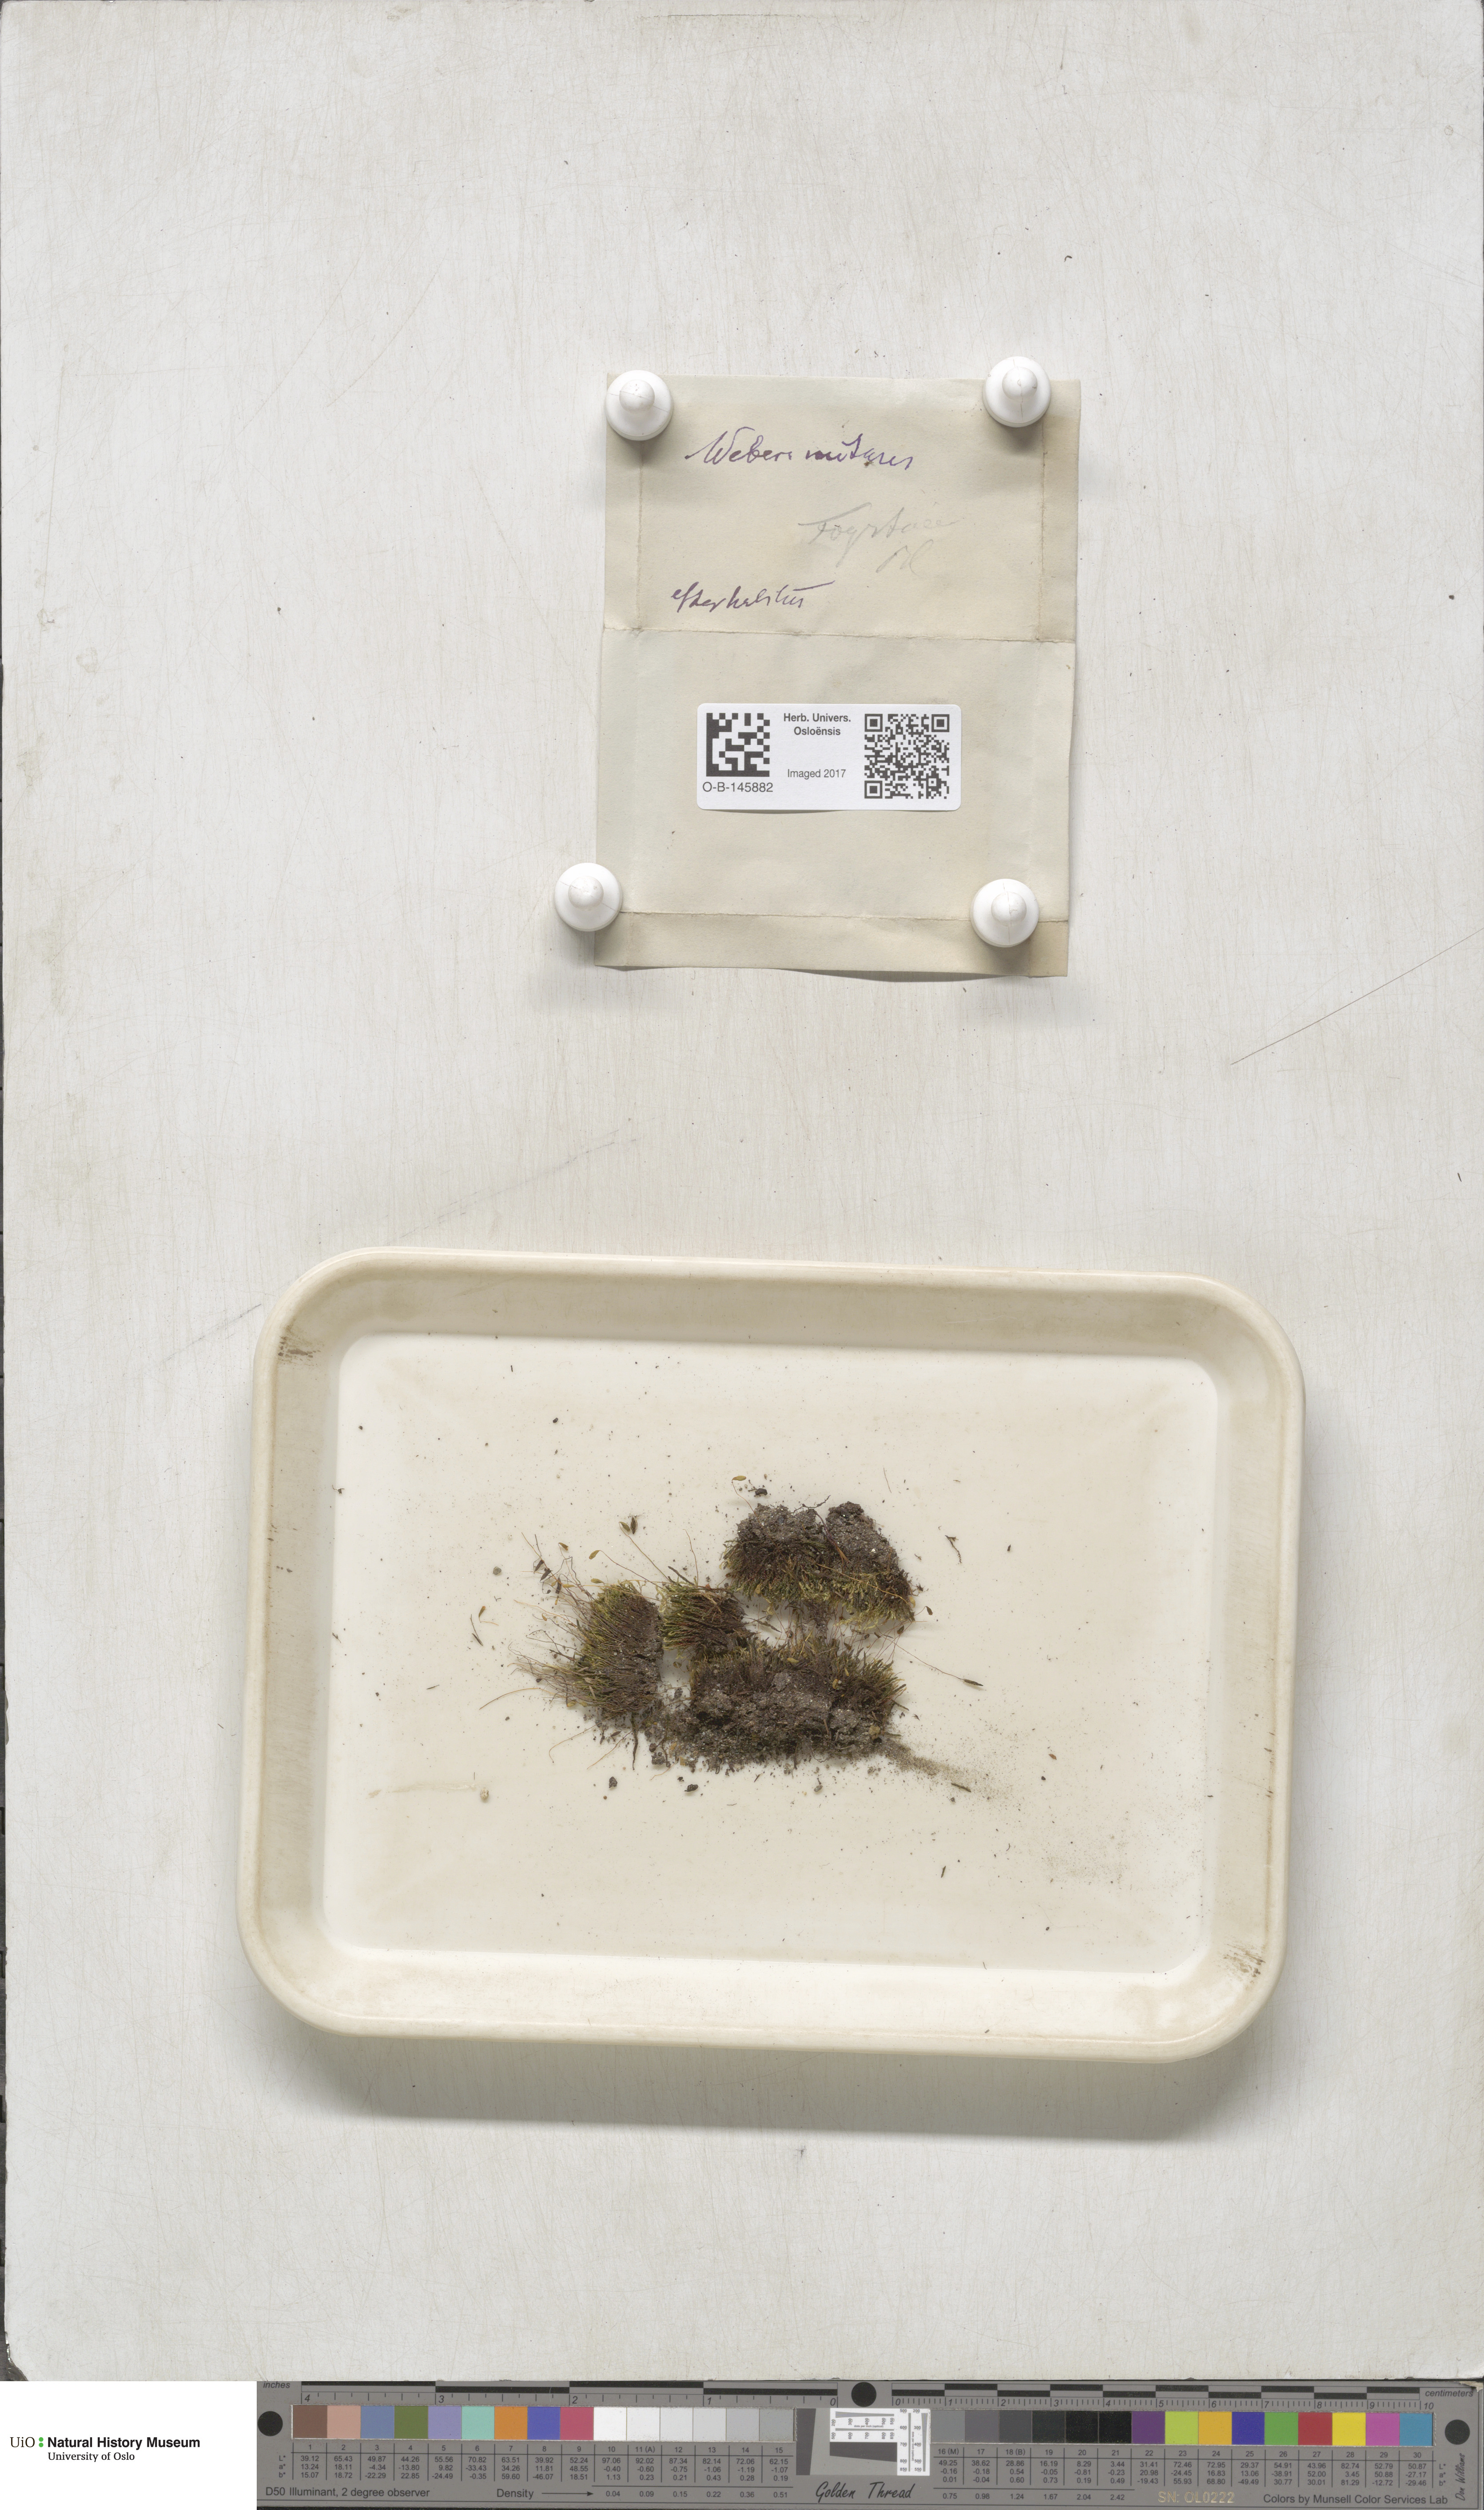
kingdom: Plantae
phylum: Bryophyta
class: Bryopsida
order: Bryales
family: Mniaceae
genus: Pohlia
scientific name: Pohlia nutans
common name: Nodding thread-moss
